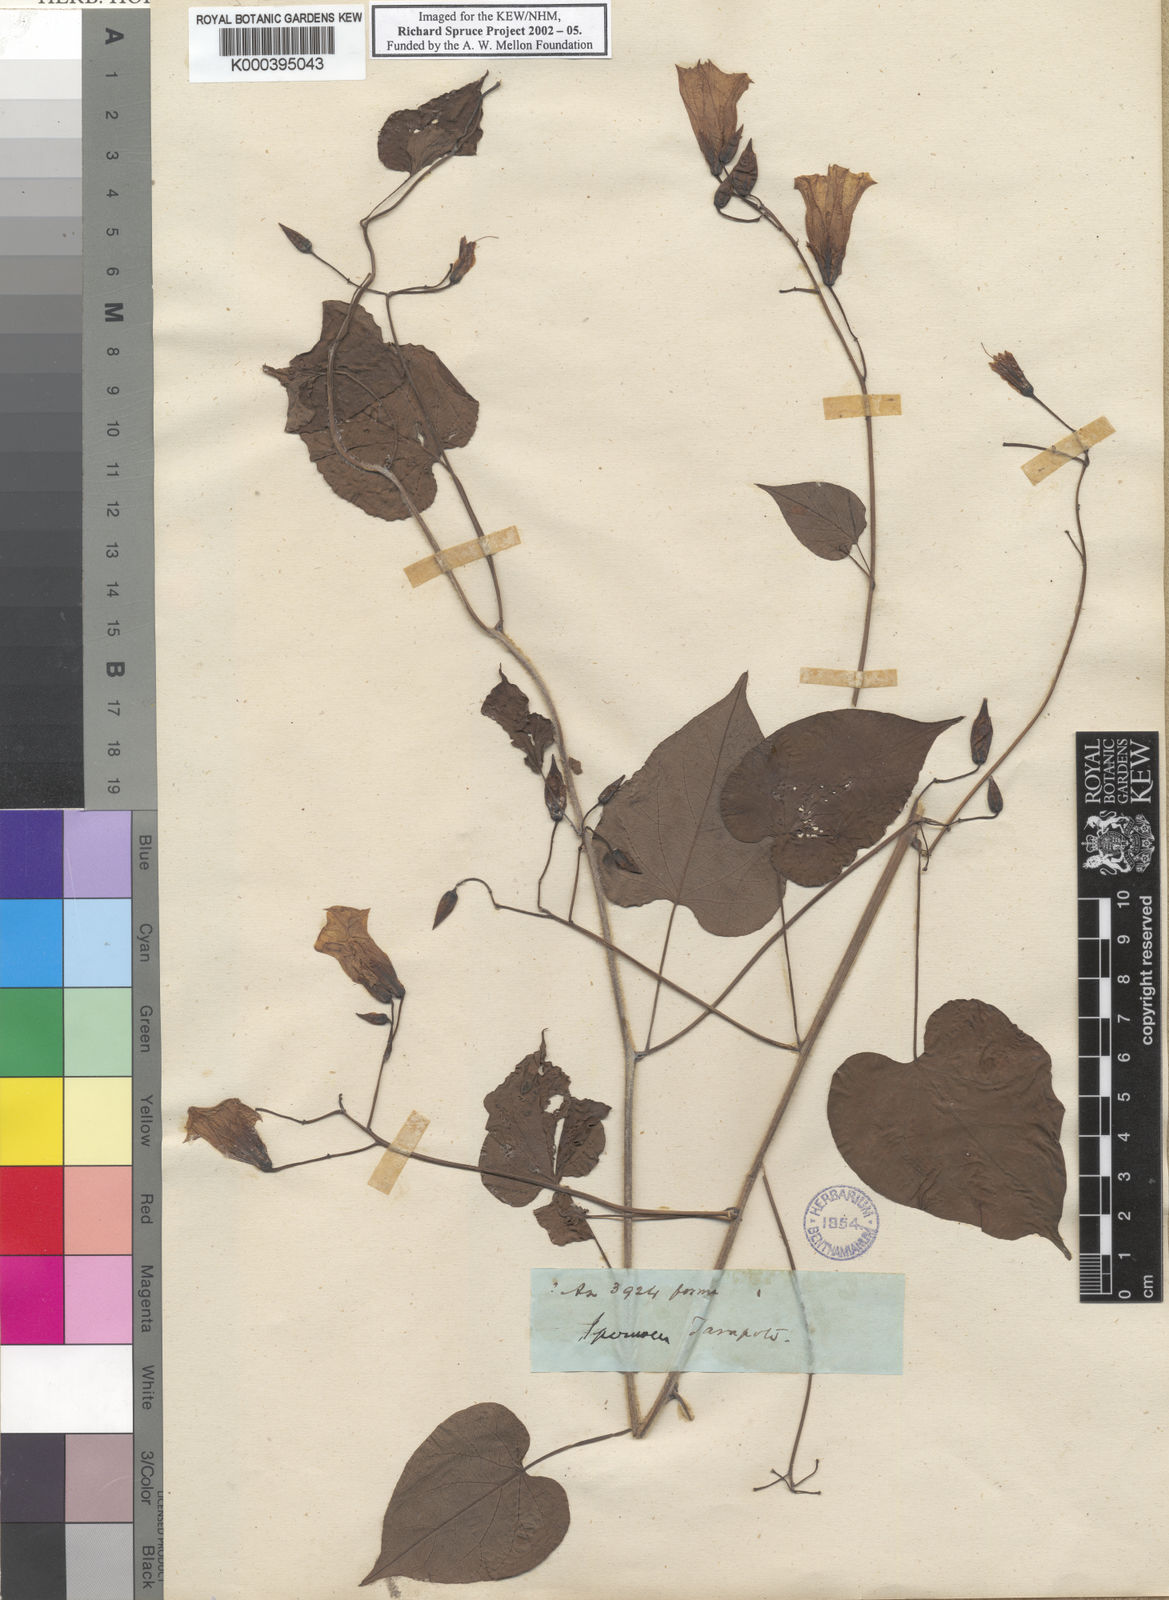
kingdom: Plantae
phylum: Tracheophyta
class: Magnoliopsida
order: Solanales
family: Convolvulaceae
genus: Ipomoea
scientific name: Ipomoea corymbosa
